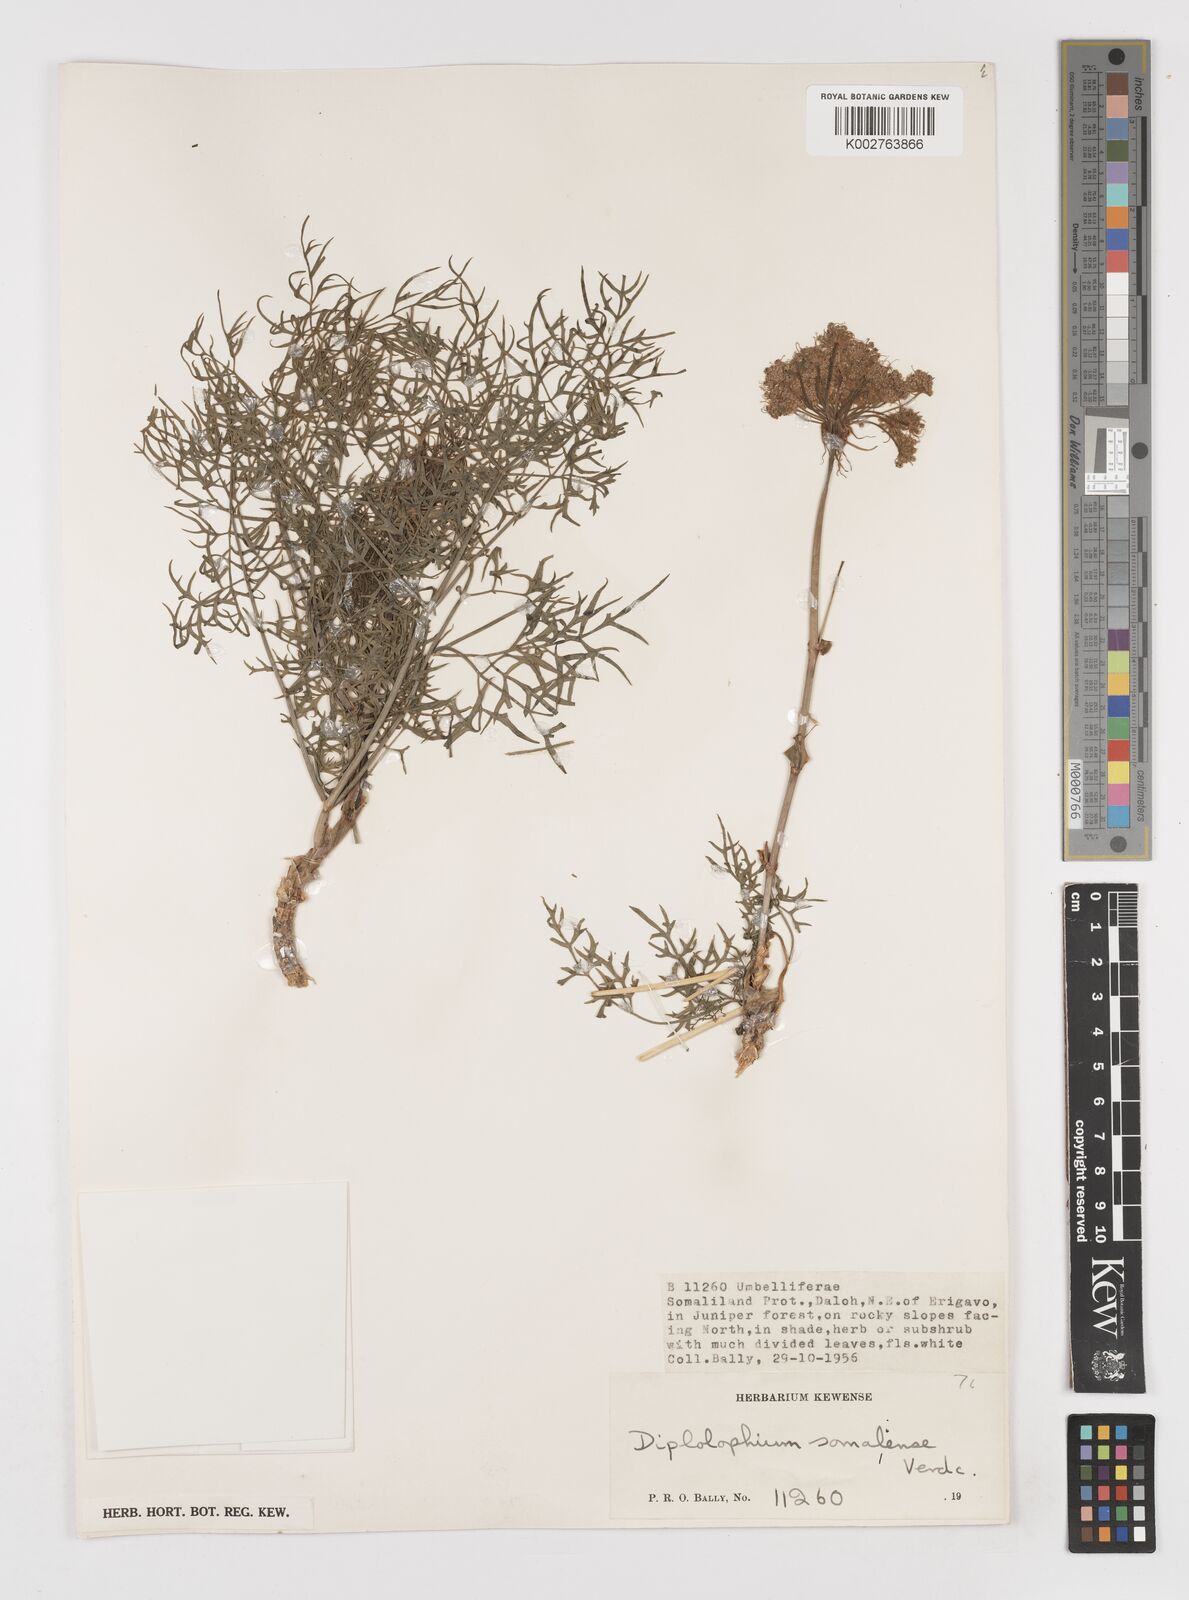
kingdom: Plantae
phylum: Tracheophyta
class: Magnoliopsida
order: Apiales
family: Apiaceae
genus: Diplolophium
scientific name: Diplolophium somaliense
